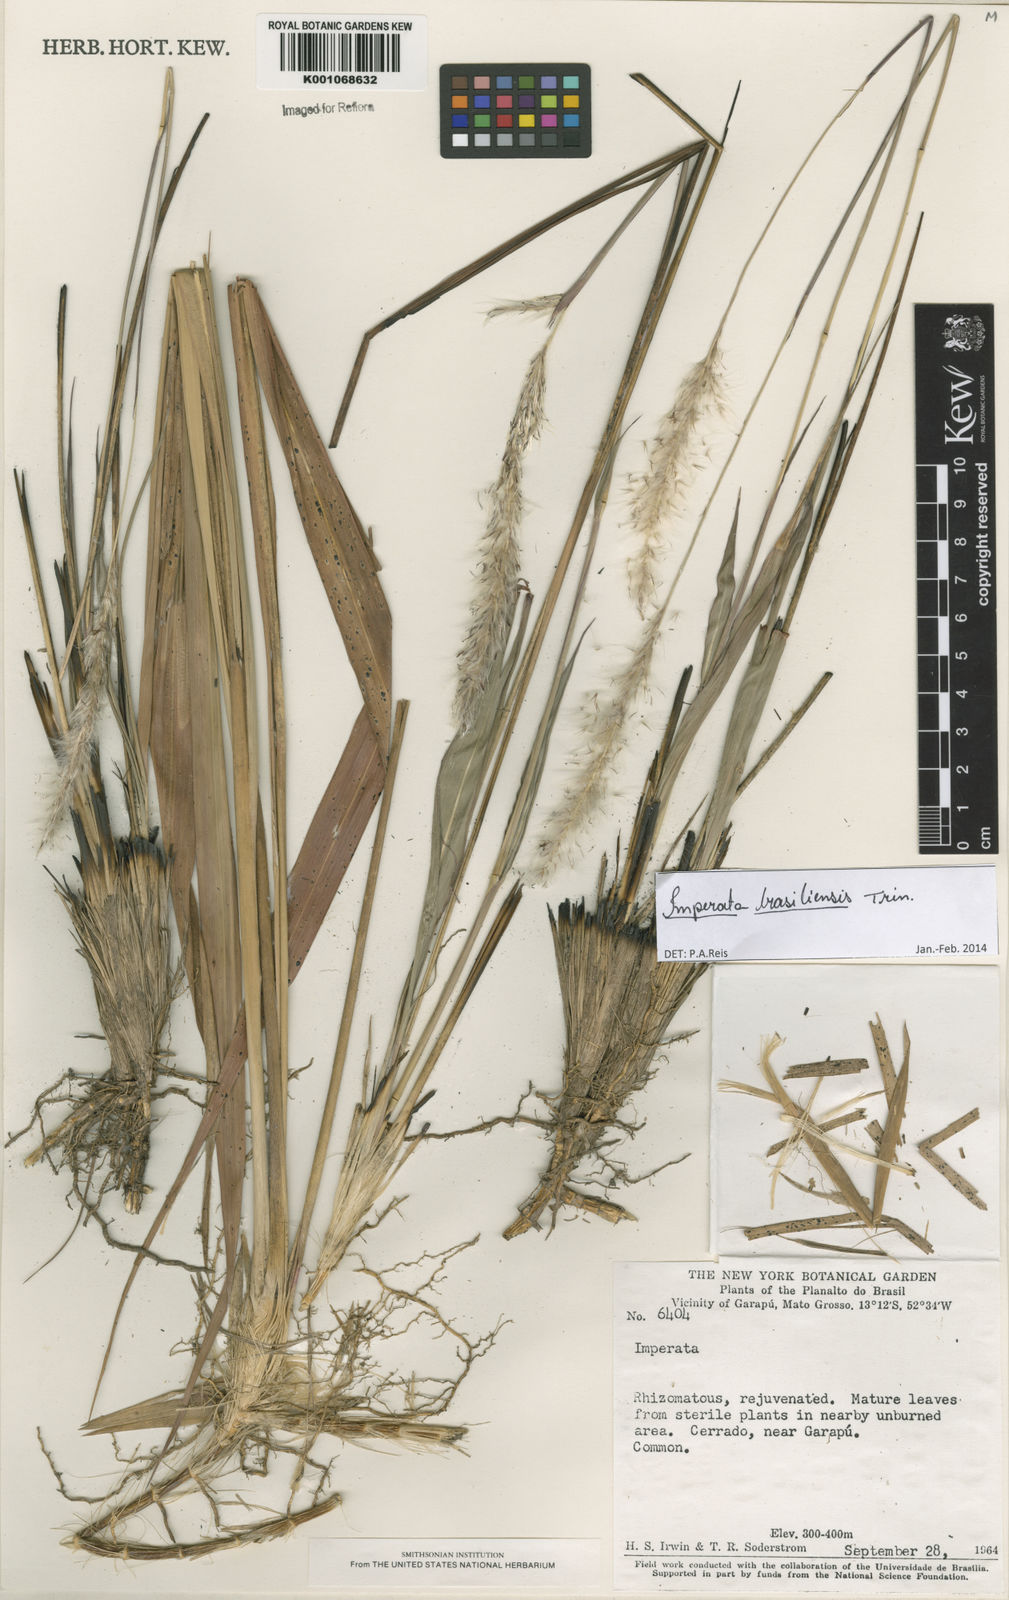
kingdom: Plantae
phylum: Tracheophyta
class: Liliopsida
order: Poales
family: Poaceae
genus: Imperata
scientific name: Imperata brasiliensis
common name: Brazilian satintail
